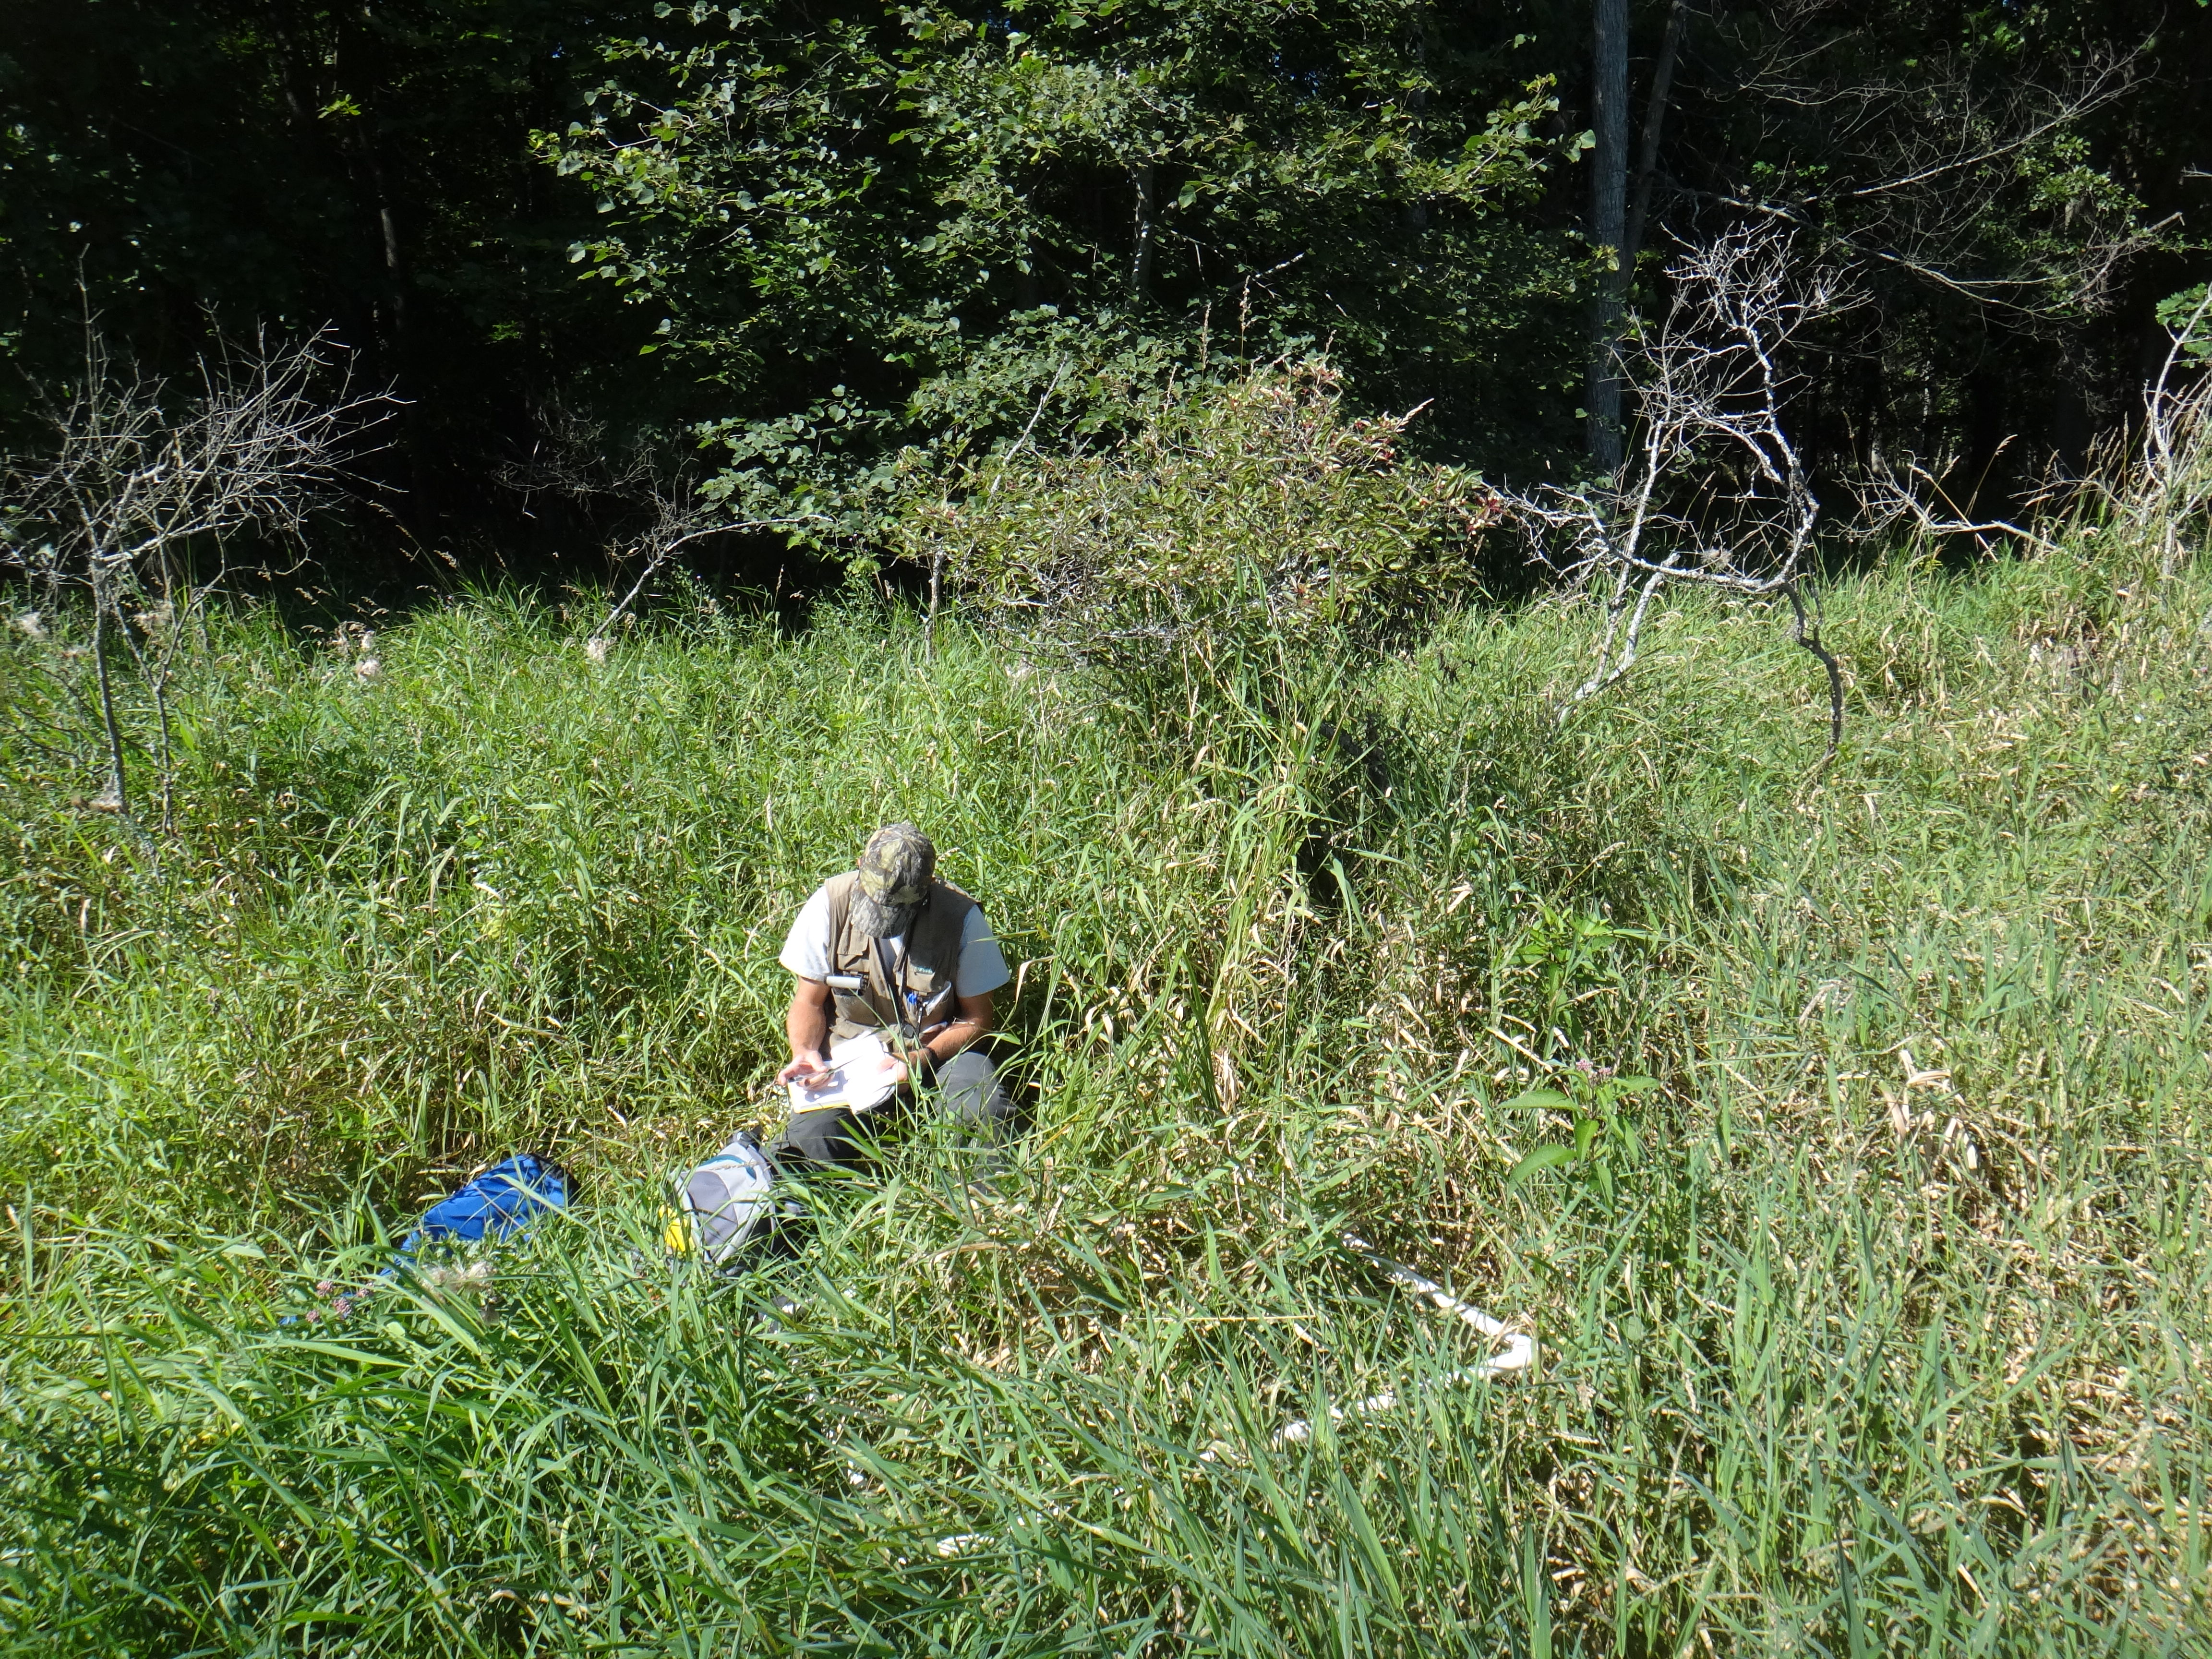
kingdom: Plantae
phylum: Tracheophyta
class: Liliopsida
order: Poales
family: Cyperaceae
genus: Carex
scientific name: Carex lacustris
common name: Common lake sedge
